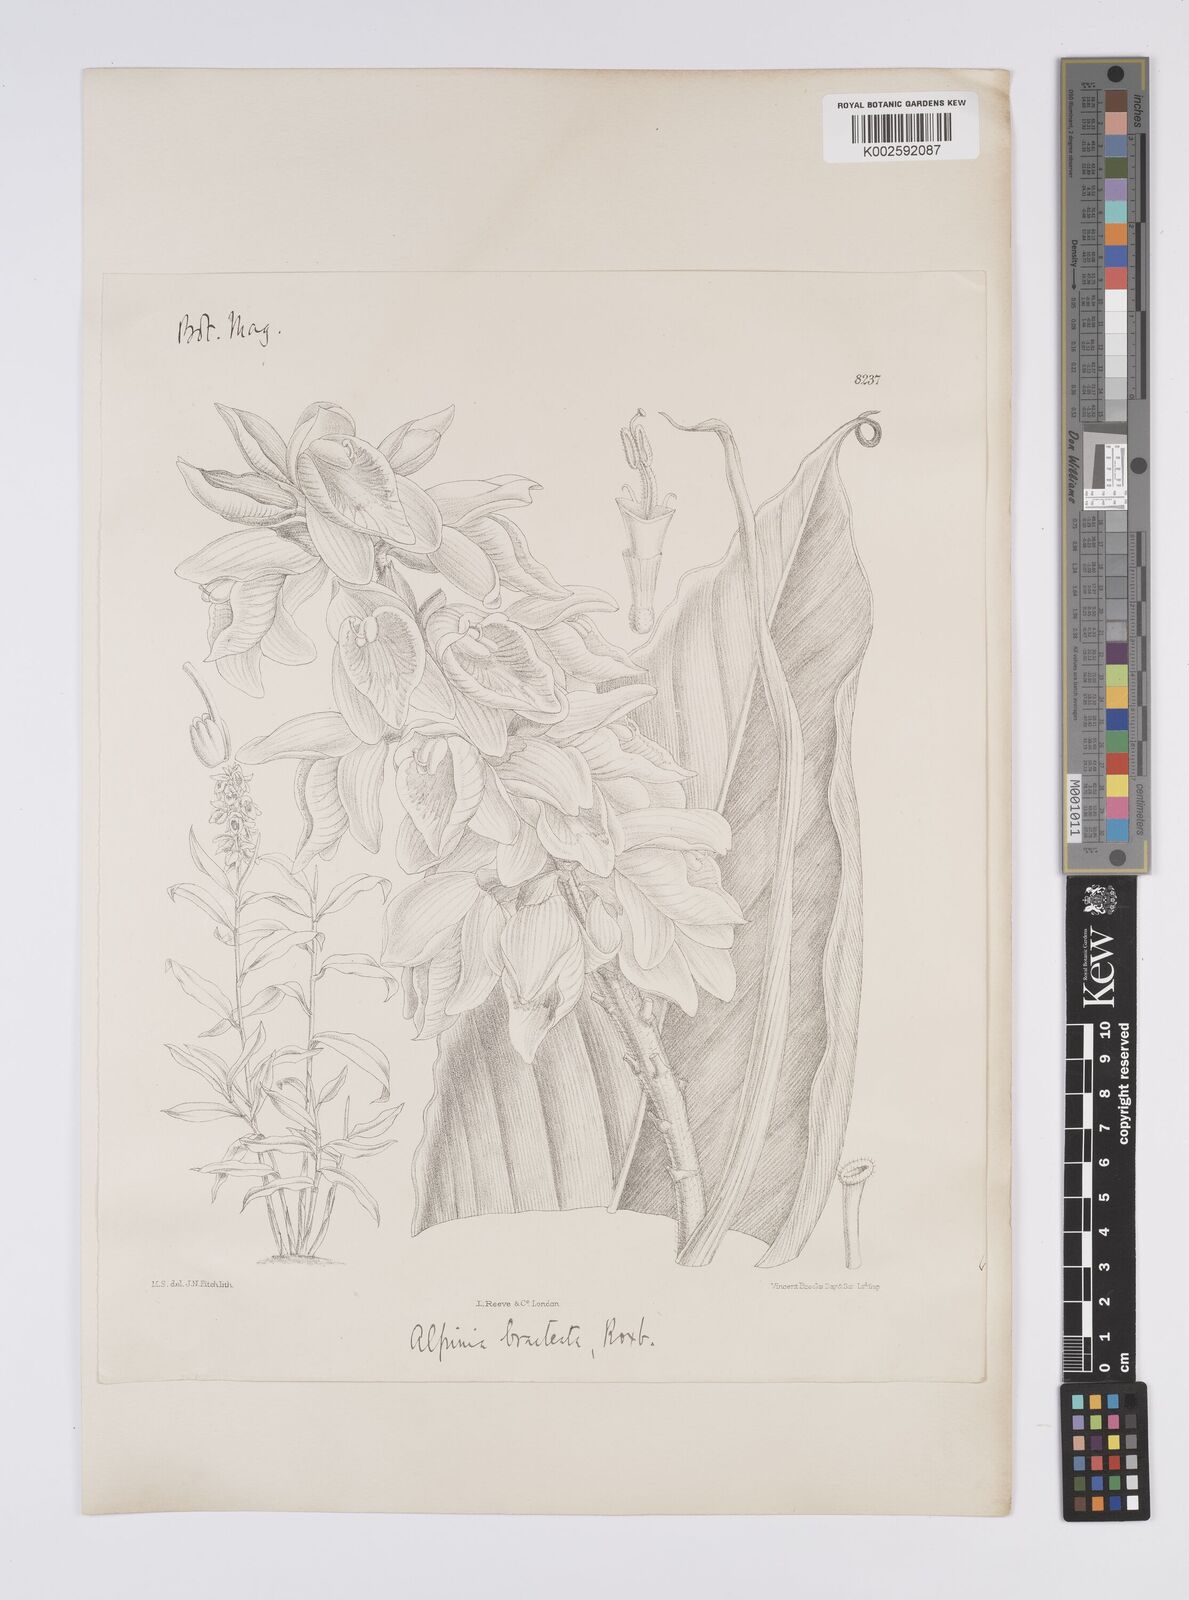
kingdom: Plantae
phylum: Tracheophyta
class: Liliopsida
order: Zingiberales
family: Zingiberaceae
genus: Alpinia
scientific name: Alpinia roxburghii
